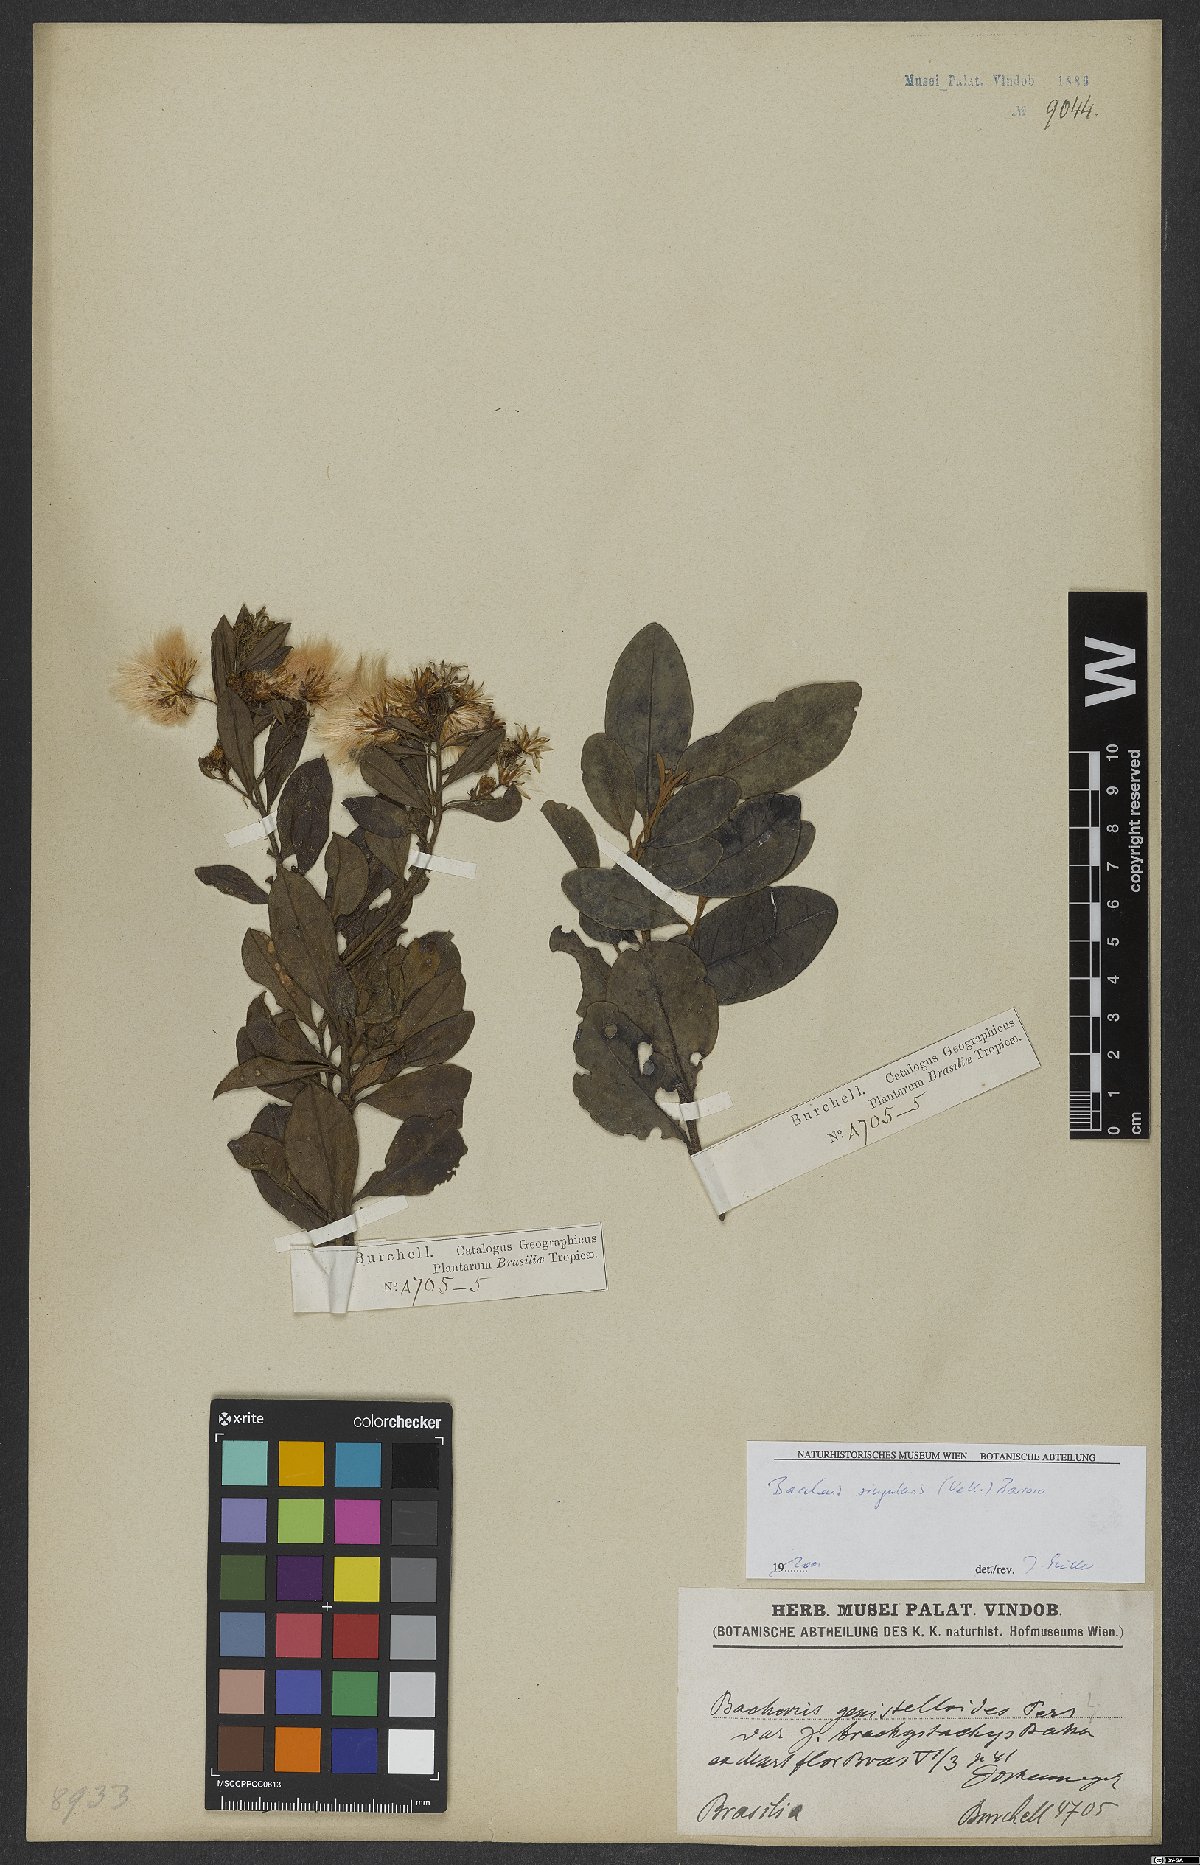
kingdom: Plantae
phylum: Tracheophyta
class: Magnoliopsida
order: Asterales
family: Asteraceae
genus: Baccharis
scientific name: Baccharis singularis
